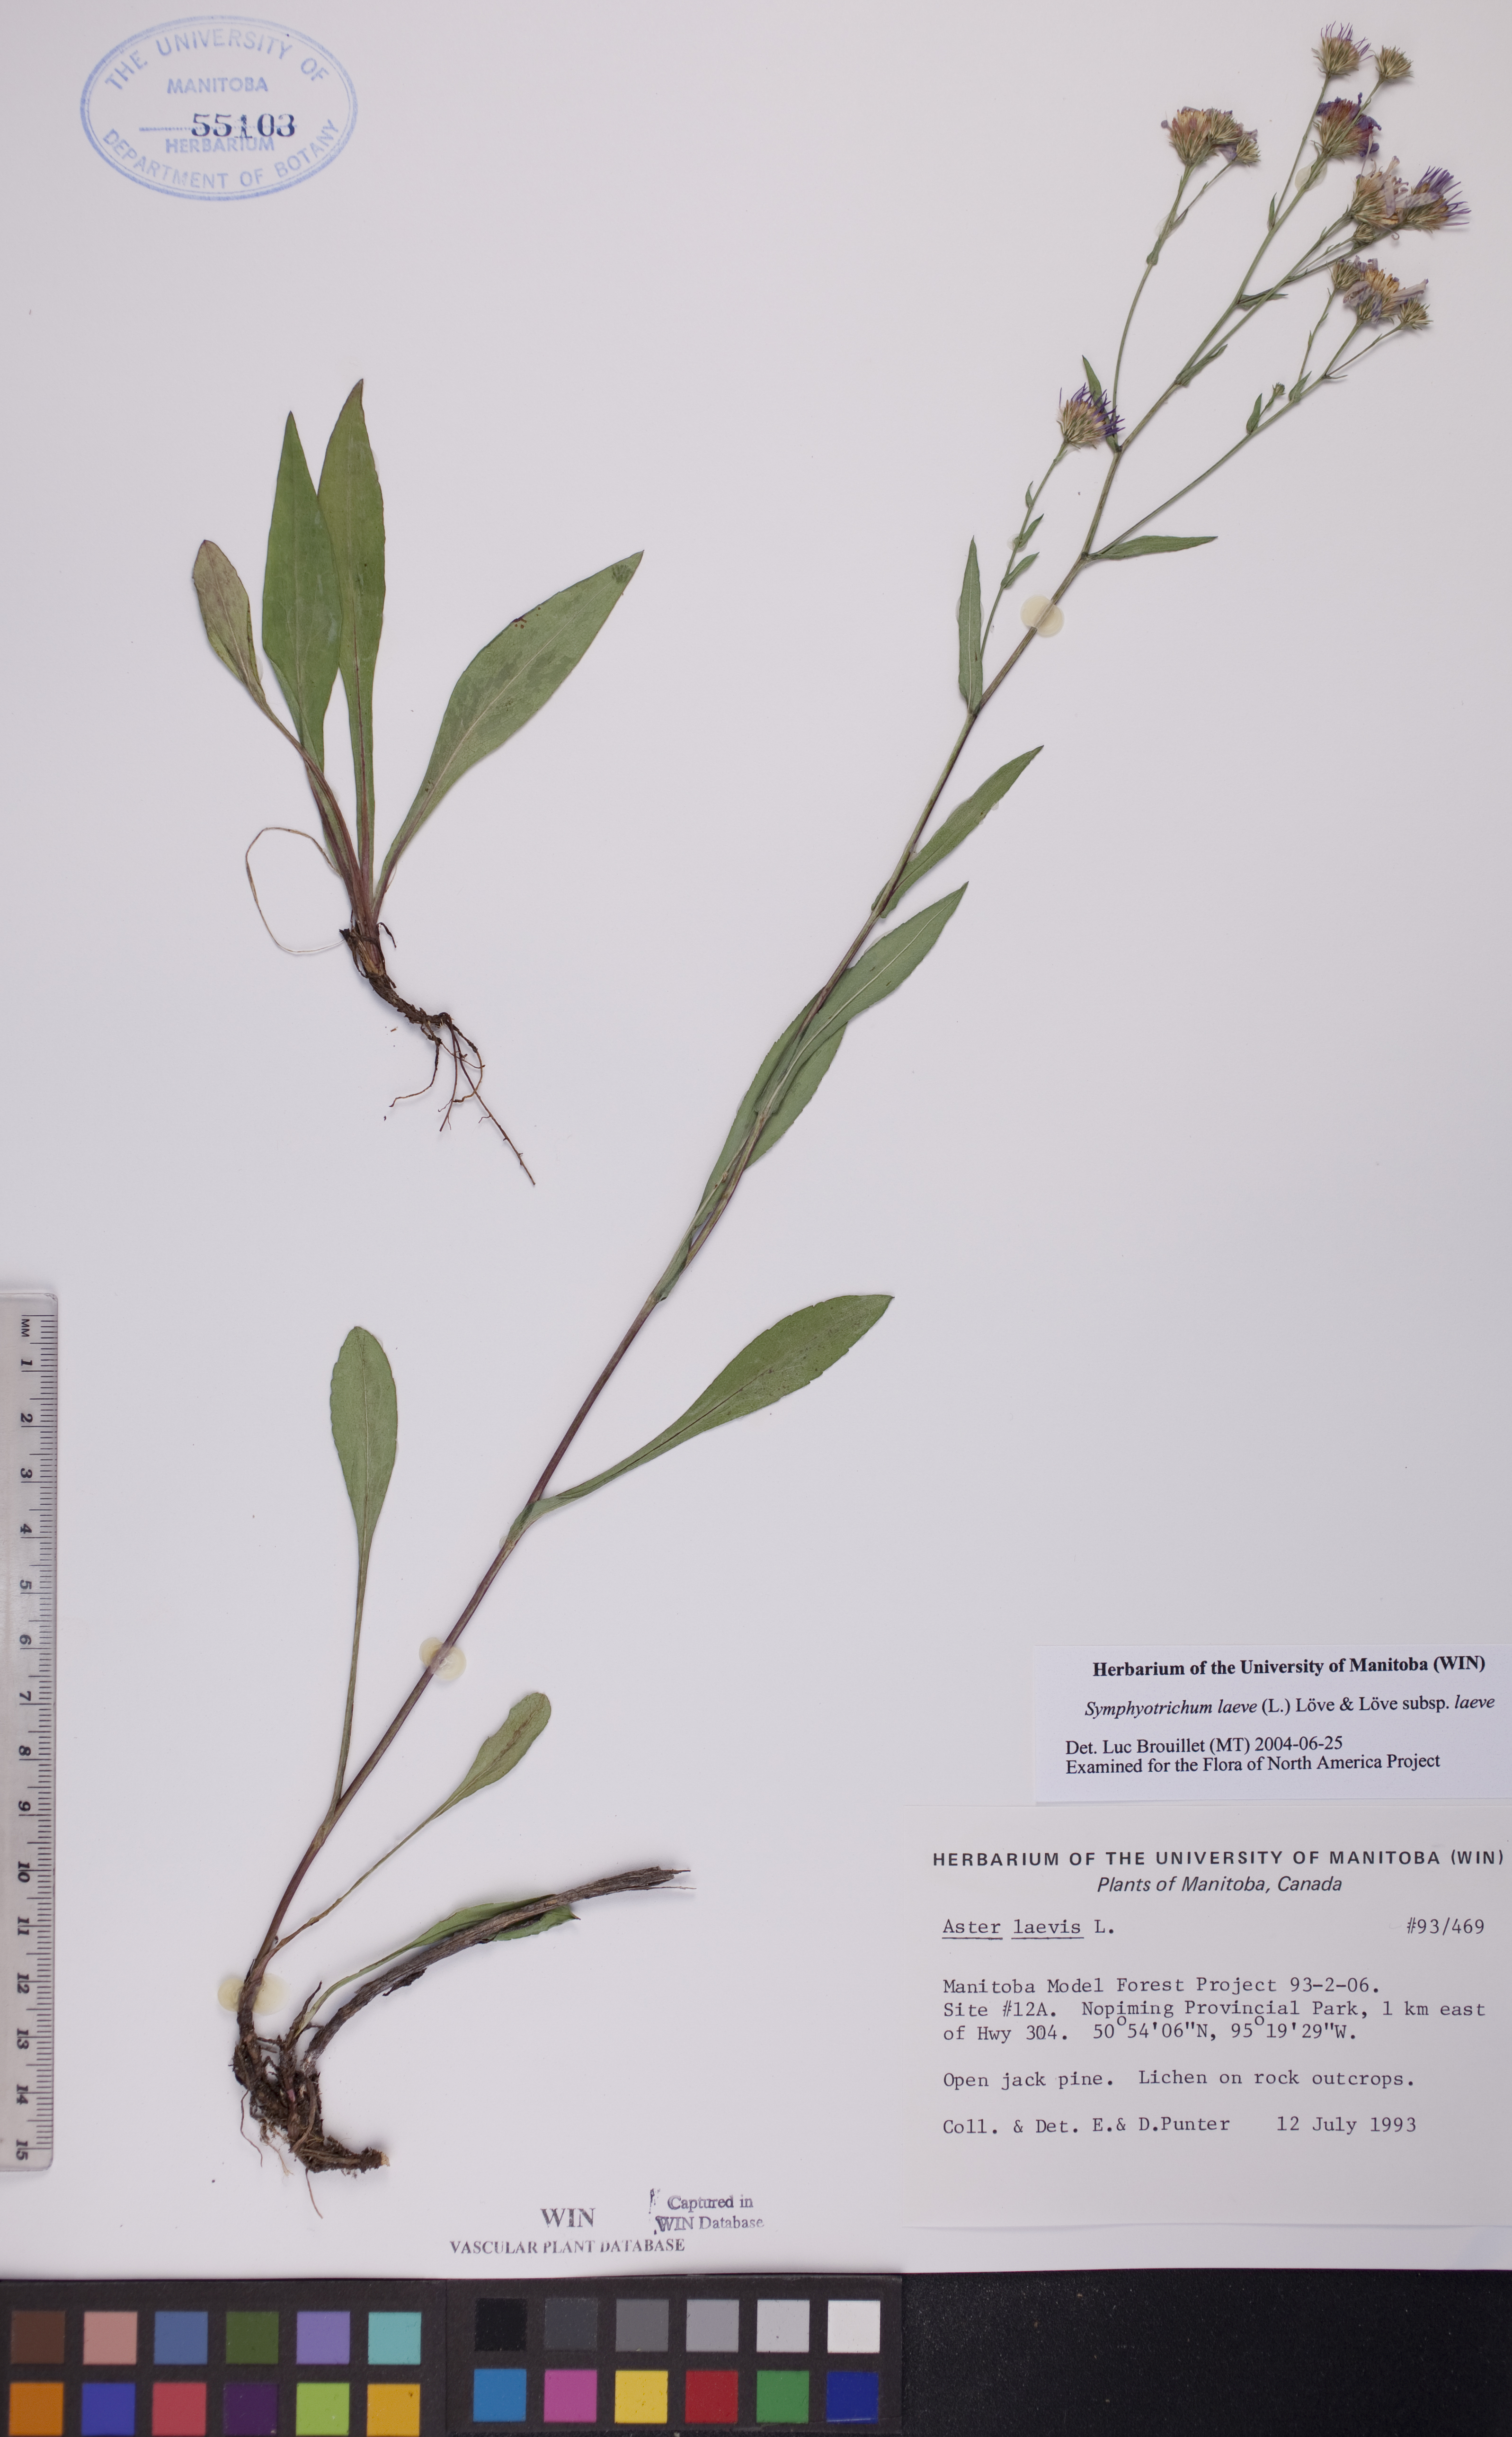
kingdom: Plantae
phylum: Tracheophyta
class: Magnoliopsida
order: Asterales
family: Asteraceae
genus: Symphyotrichum
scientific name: Symphyotrichum laeve
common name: Glaucous aster
